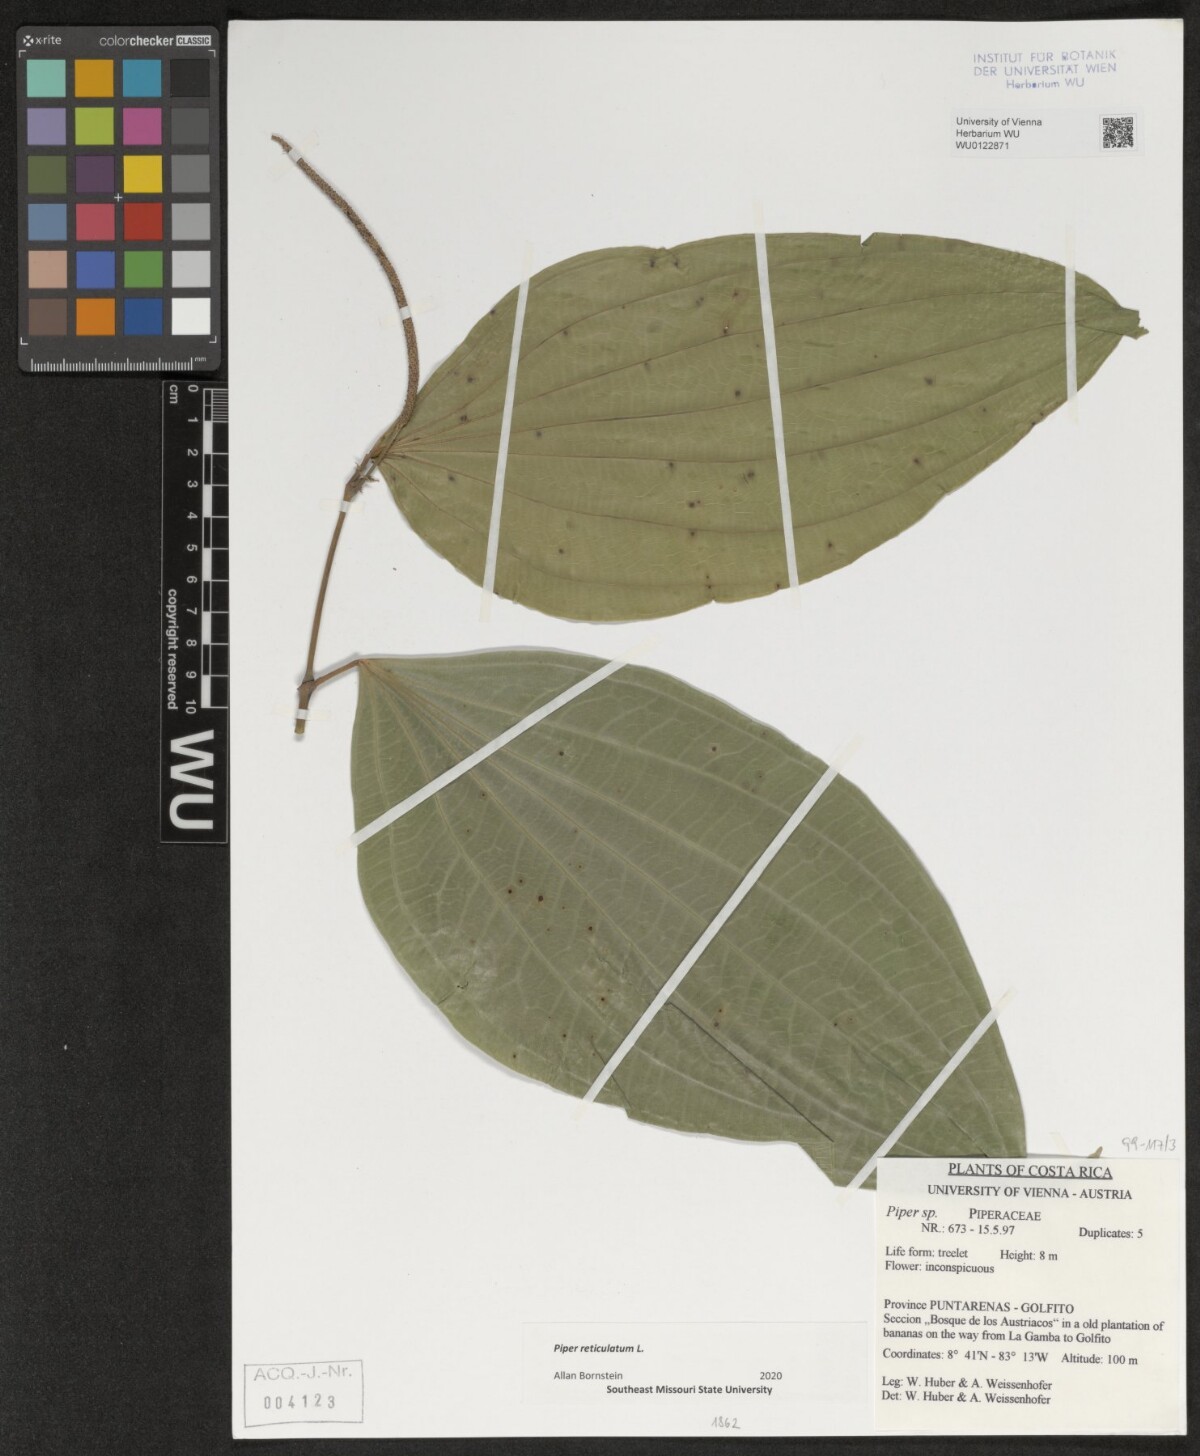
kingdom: Plantae
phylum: Tracheophyta
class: Magnoliopsida
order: Piperales
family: Piperaceae
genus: Piper
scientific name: Piper reticulatum
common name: Wild cane
